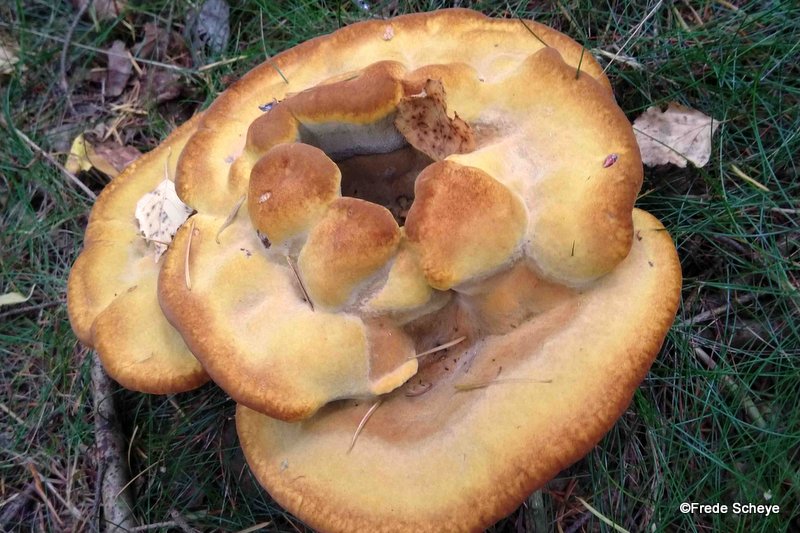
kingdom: Fungi
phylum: Basidiomycota
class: Agaricomycetes
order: Polyporales
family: Laetiporaceae
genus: Phaeolus
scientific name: Phaeolus schweinitzii
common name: brunporesvamp
